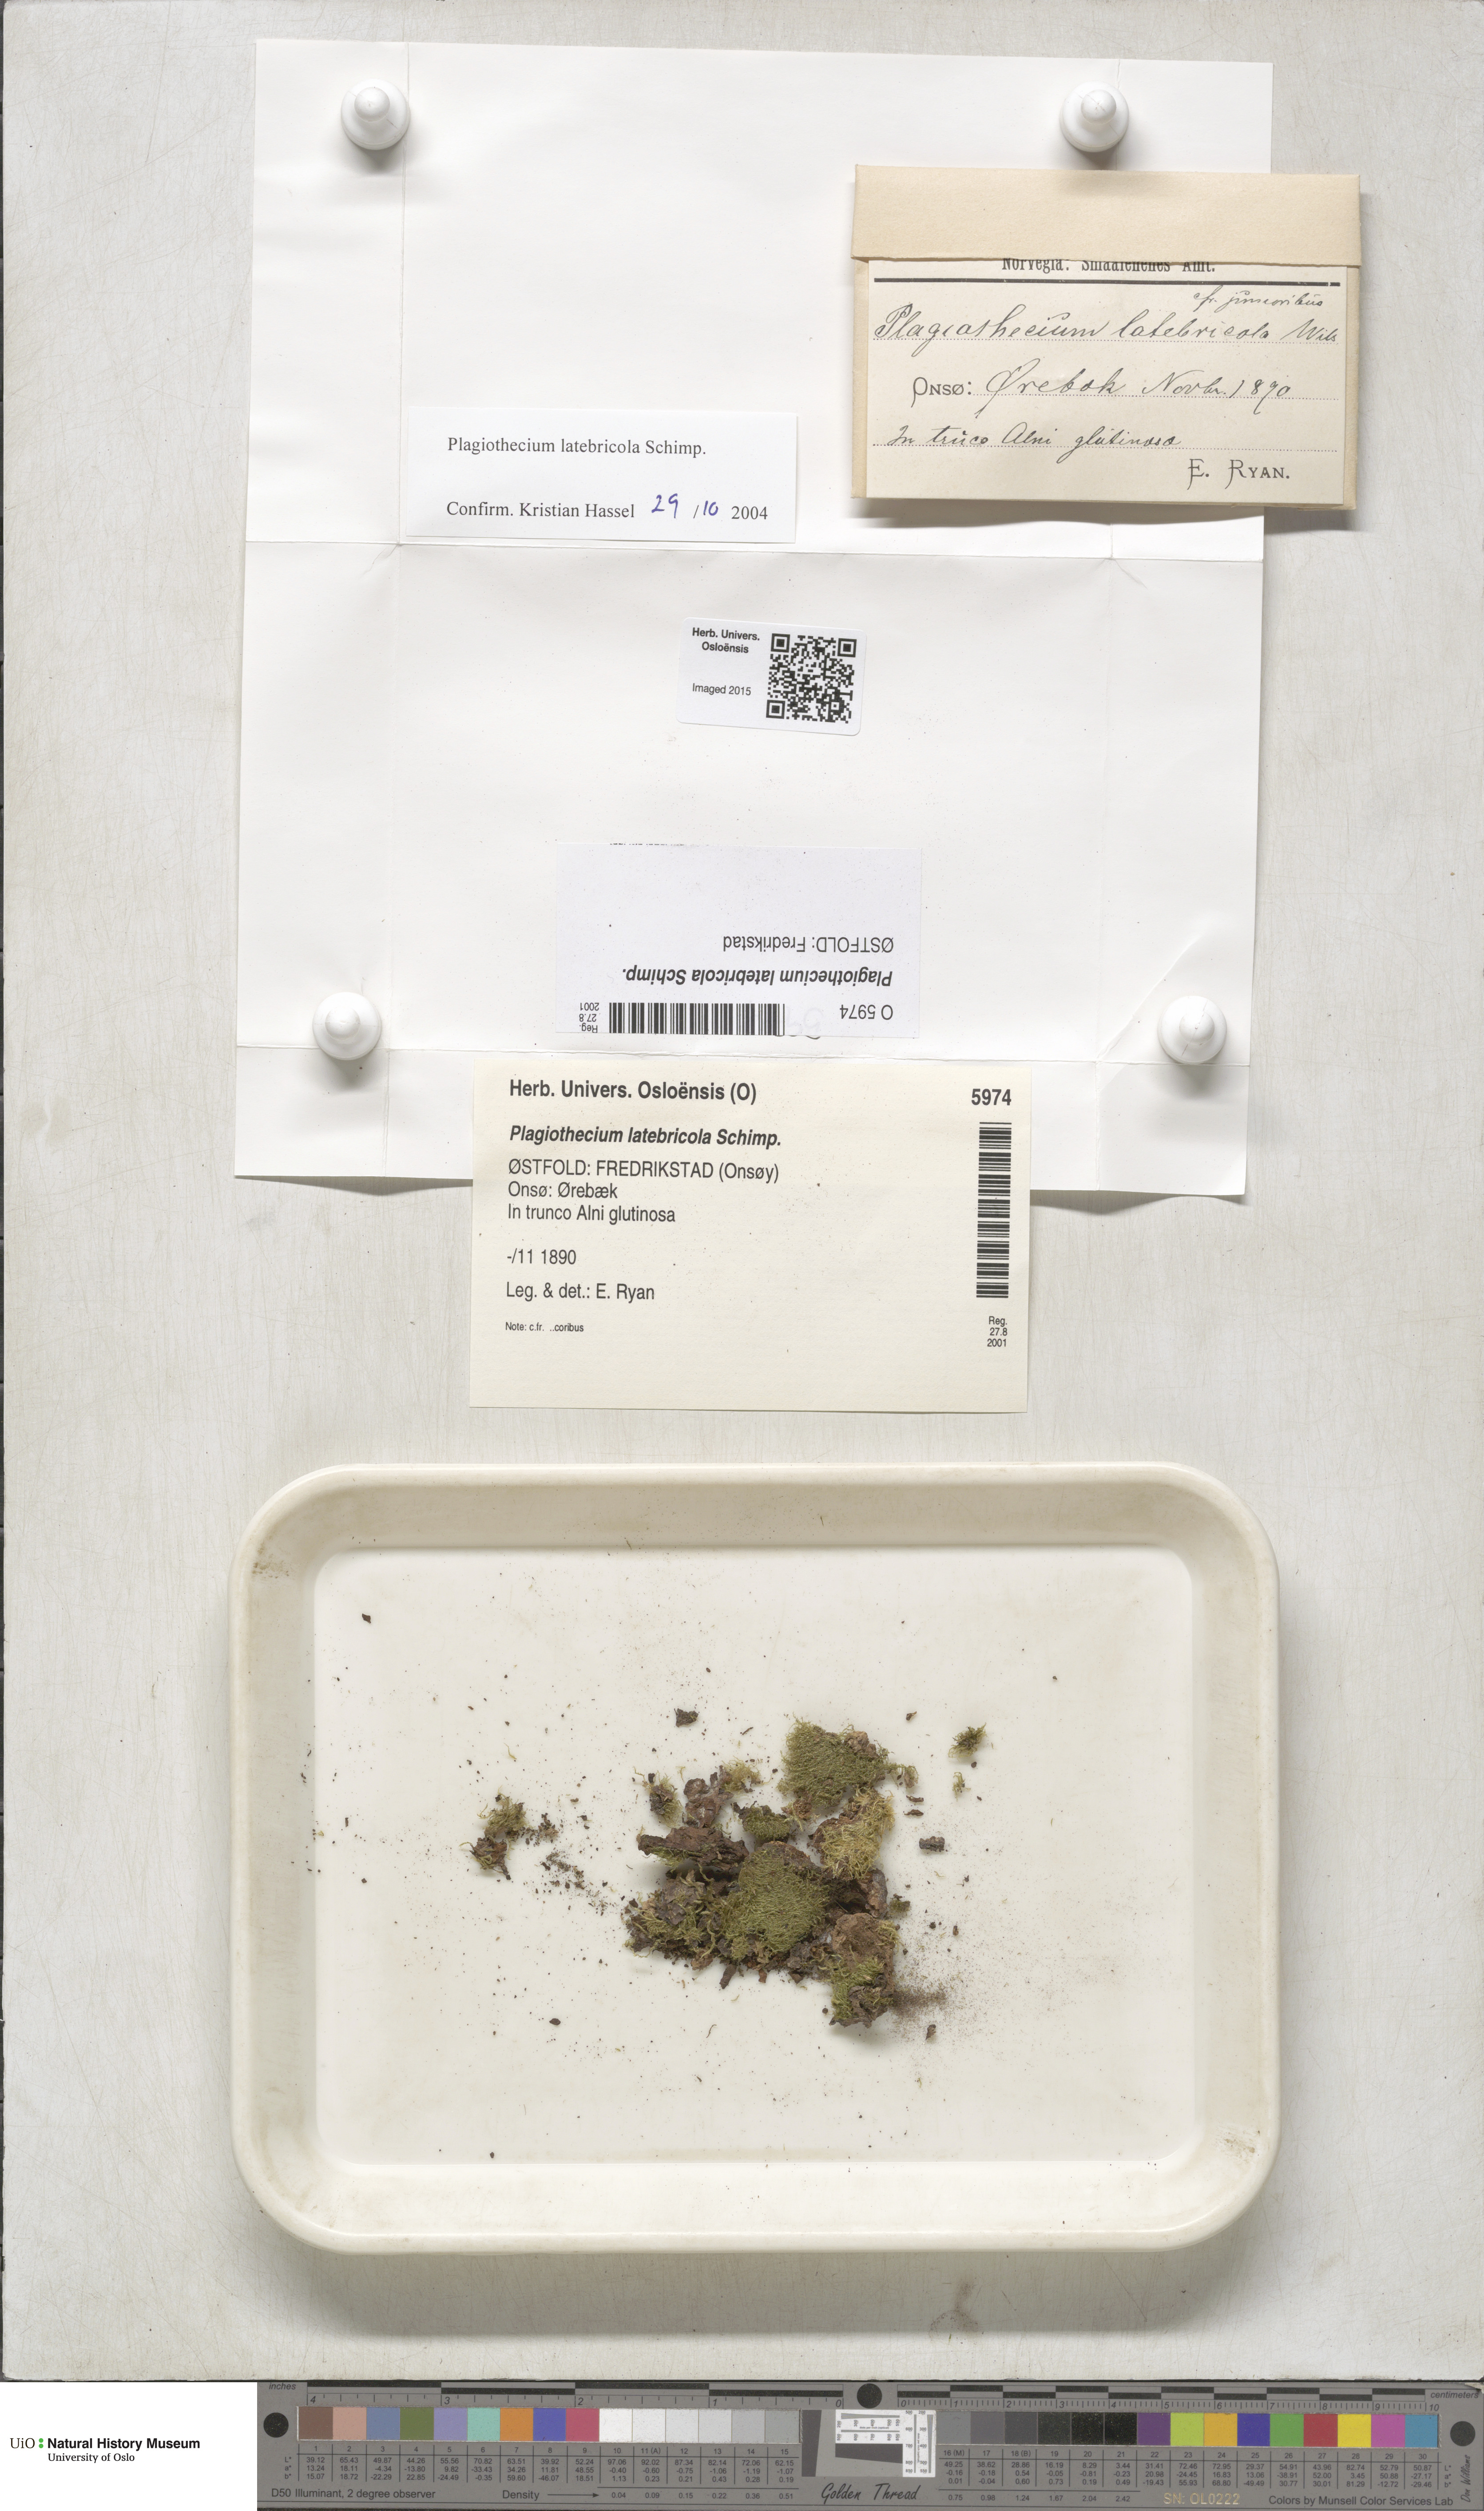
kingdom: Plantae
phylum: Bryophyta
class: Bryopsida
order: Hypnales
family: Plagiotheciaceae
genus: Plagiothecium
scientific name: Plagiothecium latebricola
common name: Alder silk moss
